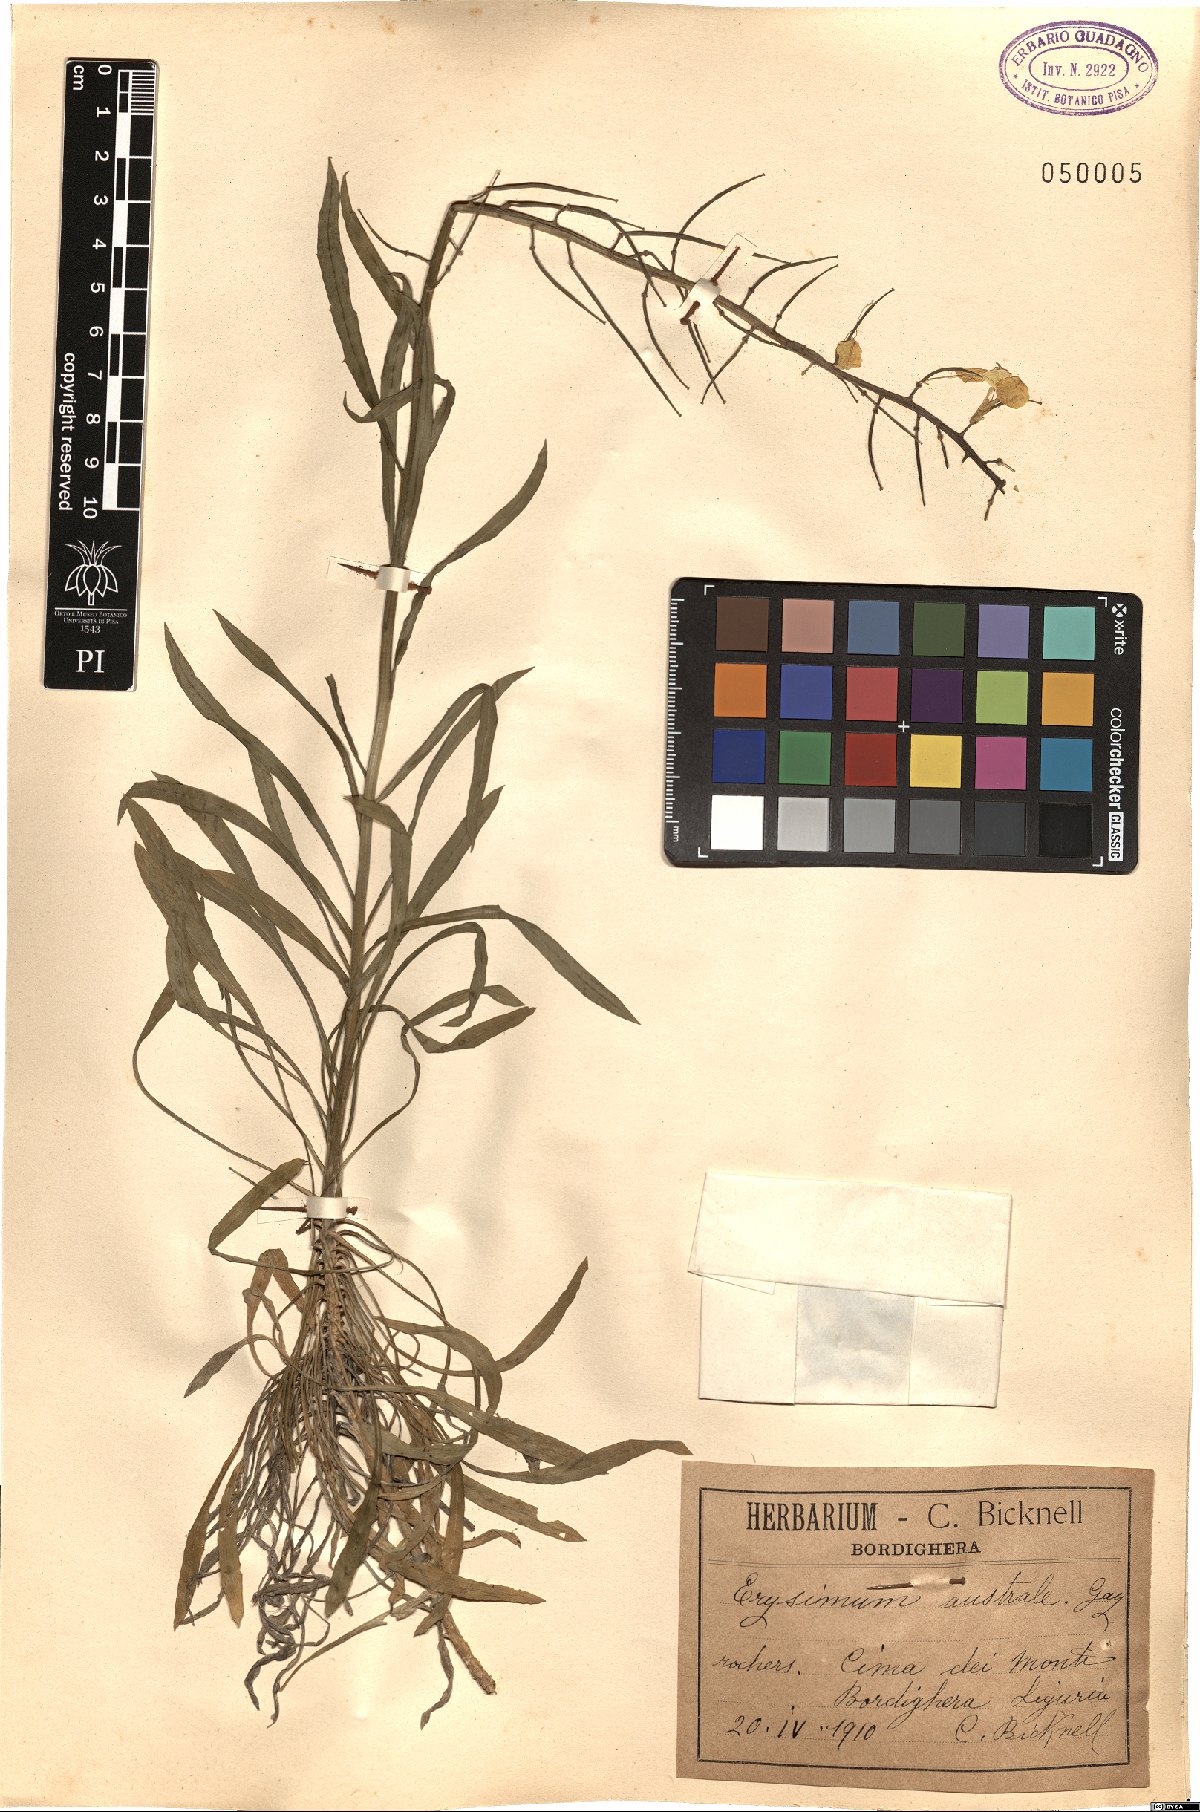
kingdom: Plantae
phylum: Tracheophyta
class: Magnoliopsida
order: Brassicales
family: Brassicaceae
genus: Erysimum
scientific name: Erysimum nevadense
